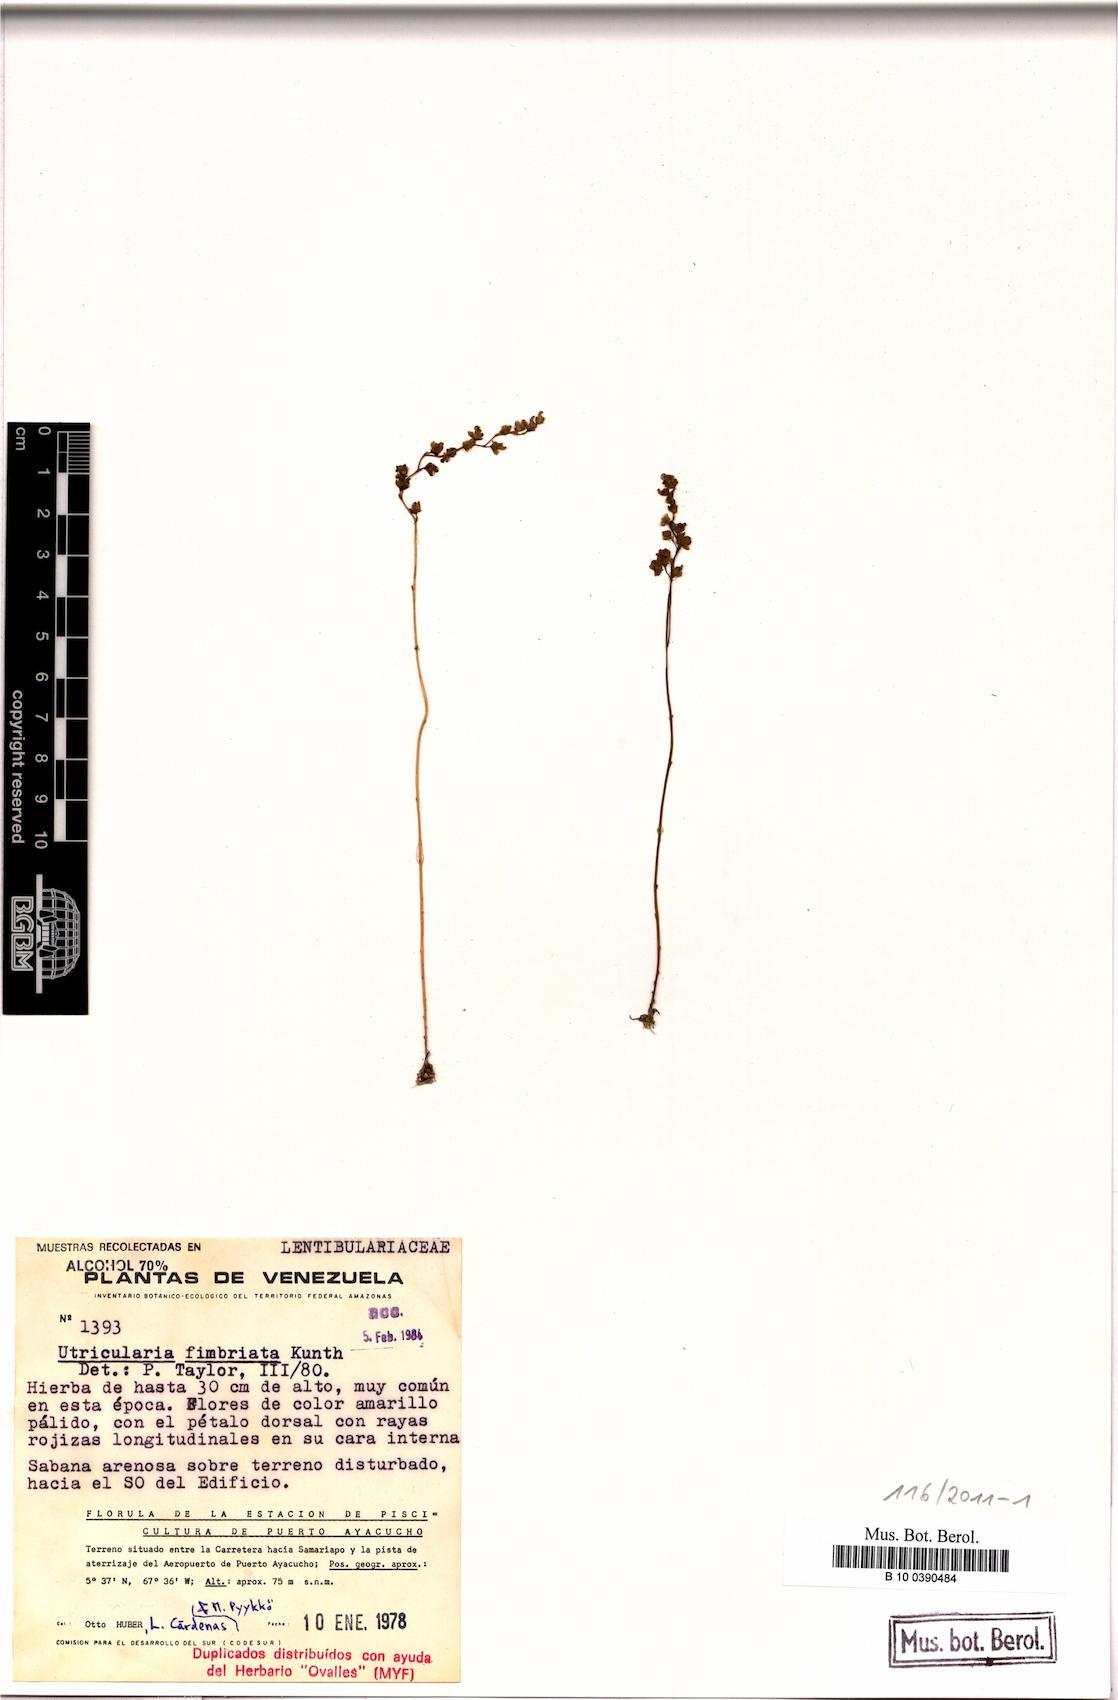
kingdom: Plantae
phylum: Tracheophyta
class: Magnoliopsida
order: Lamiales
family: Lentibulariaceae
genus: Utricularia
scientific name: Utricularia laciniata
